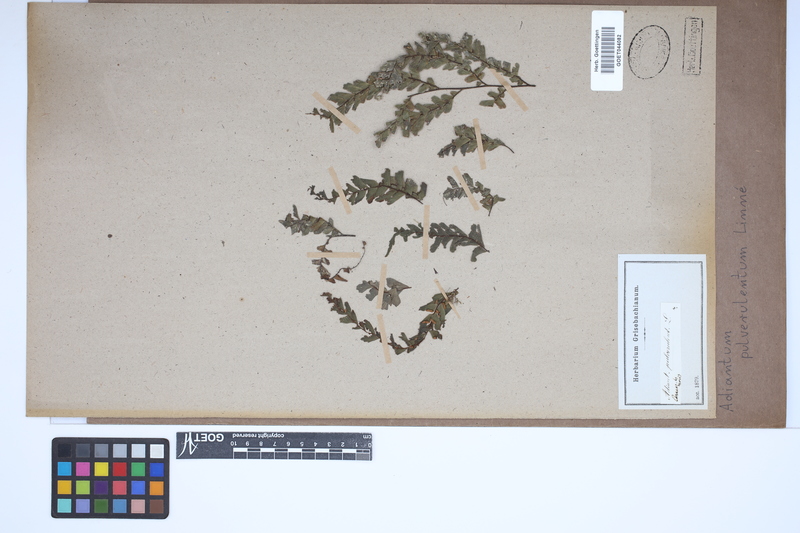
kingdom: Plantae
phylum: Tracheophyta
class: Polypodiopsida
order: Polypodiales
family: Pteridaceae
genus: Adiantum
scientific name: Adiantum pulverulentum
